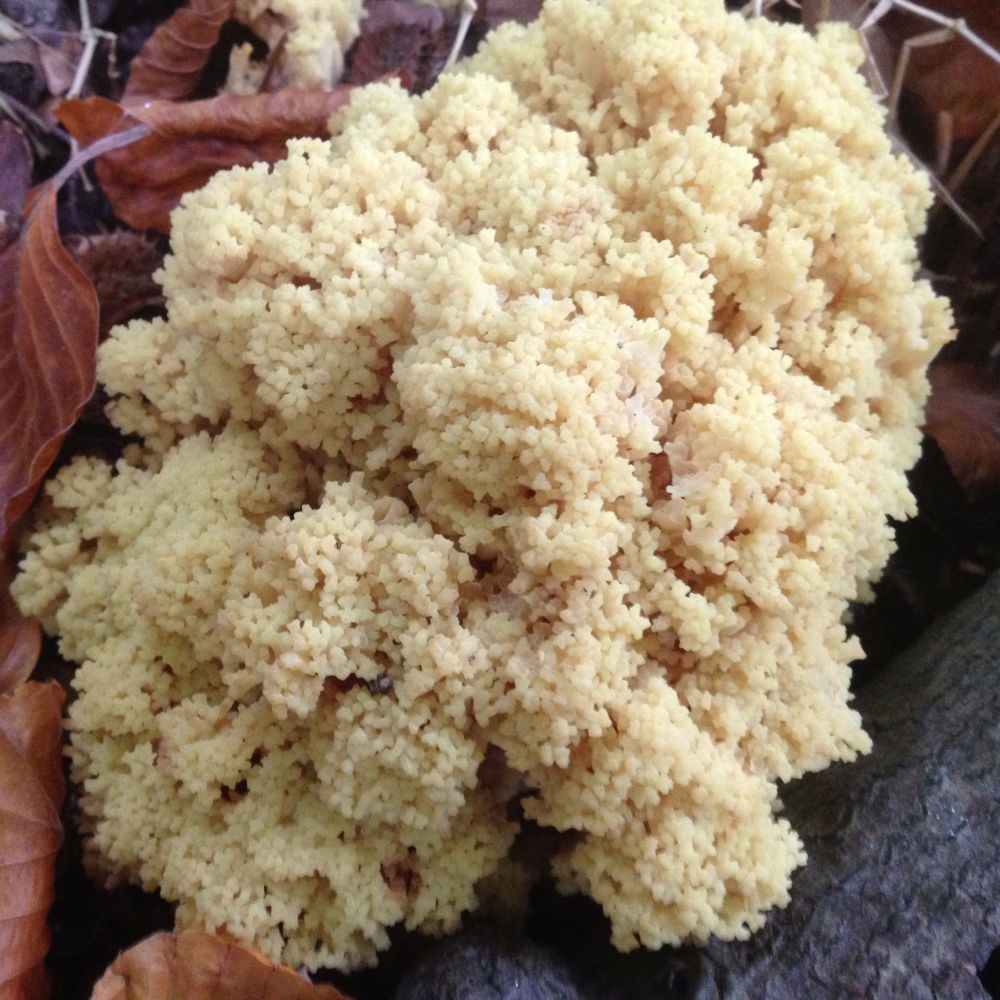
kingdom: Fungi
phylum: Basidiomycota
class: Agaricomycetes
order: Gomphales
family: Gomphaceae
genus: Ramaria
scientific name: Ramaria sanguinea
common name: blodplettet koralsvamp
